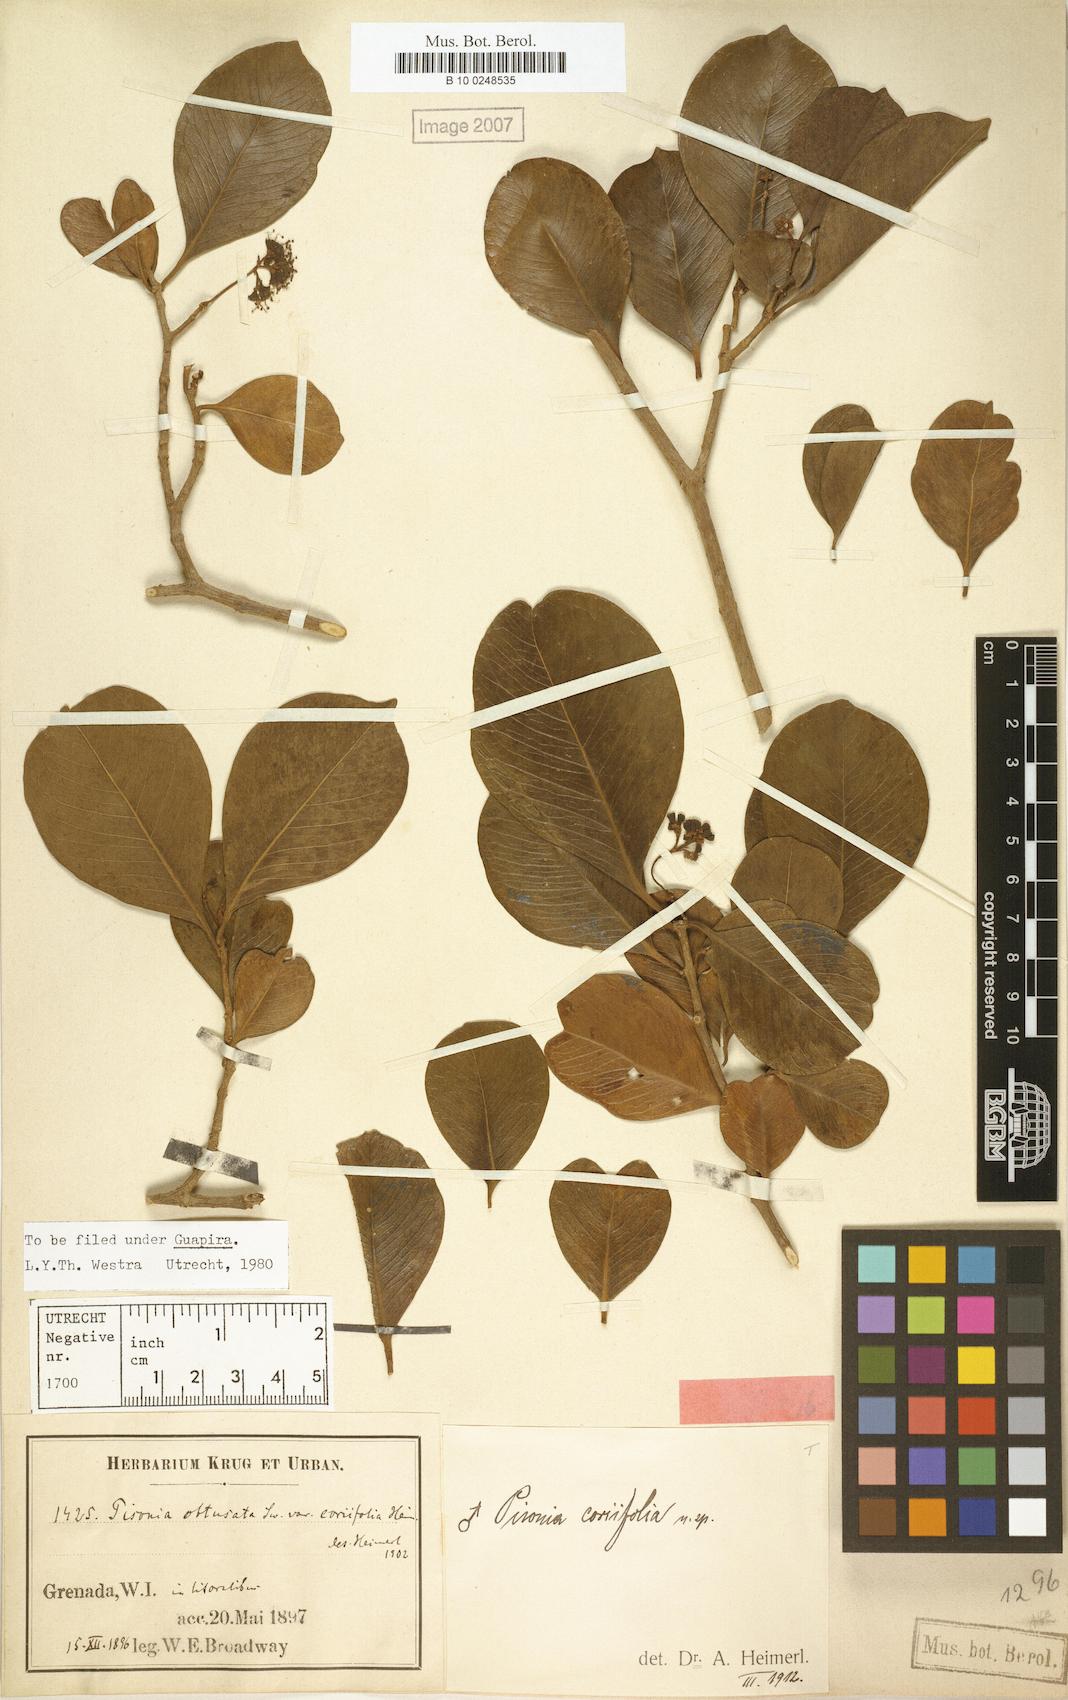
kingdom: Plantae
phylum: Tracheophyta
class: Magnoliopsida
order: Caryophyllales
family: Nyctaginaceae
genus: Guapira
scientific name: Guapira fragrans
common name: Black loblolly tree
